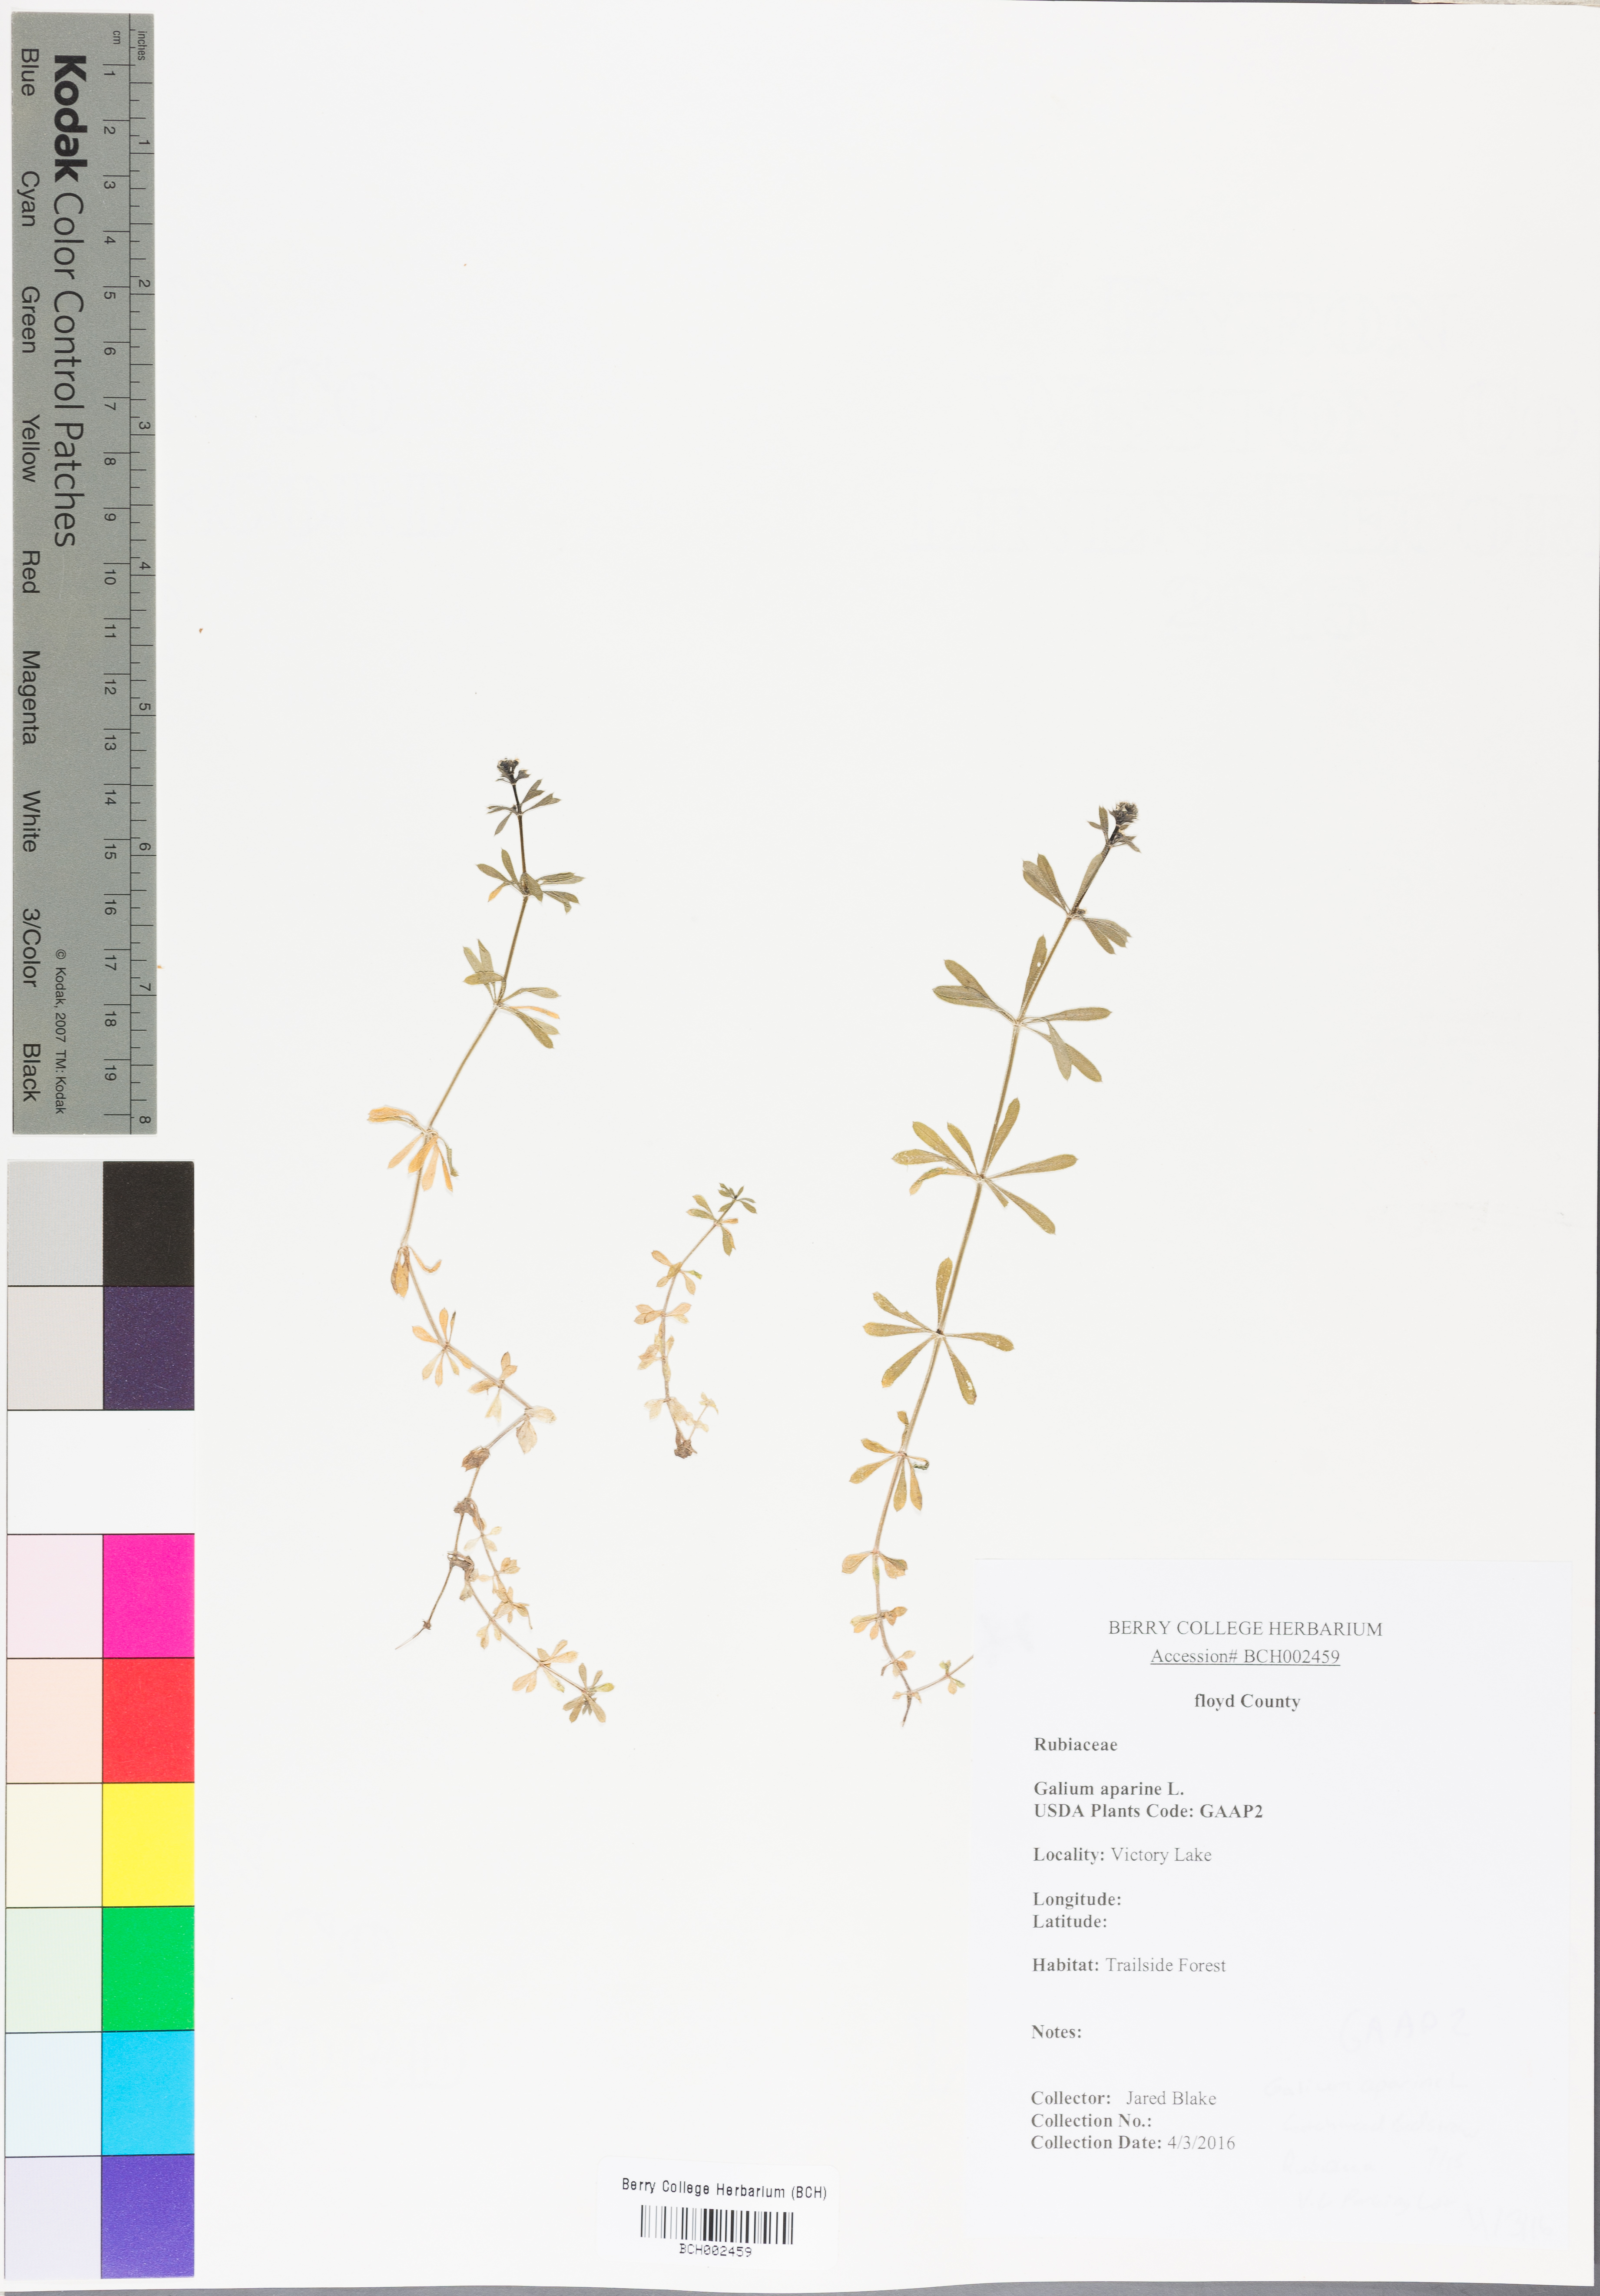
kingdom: Plantae
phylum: Tracheophyta
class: Magnoliopsida
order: Gentianales
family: Rubiaceae
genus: Galium
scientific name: Galium aparine
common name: Cleavers
